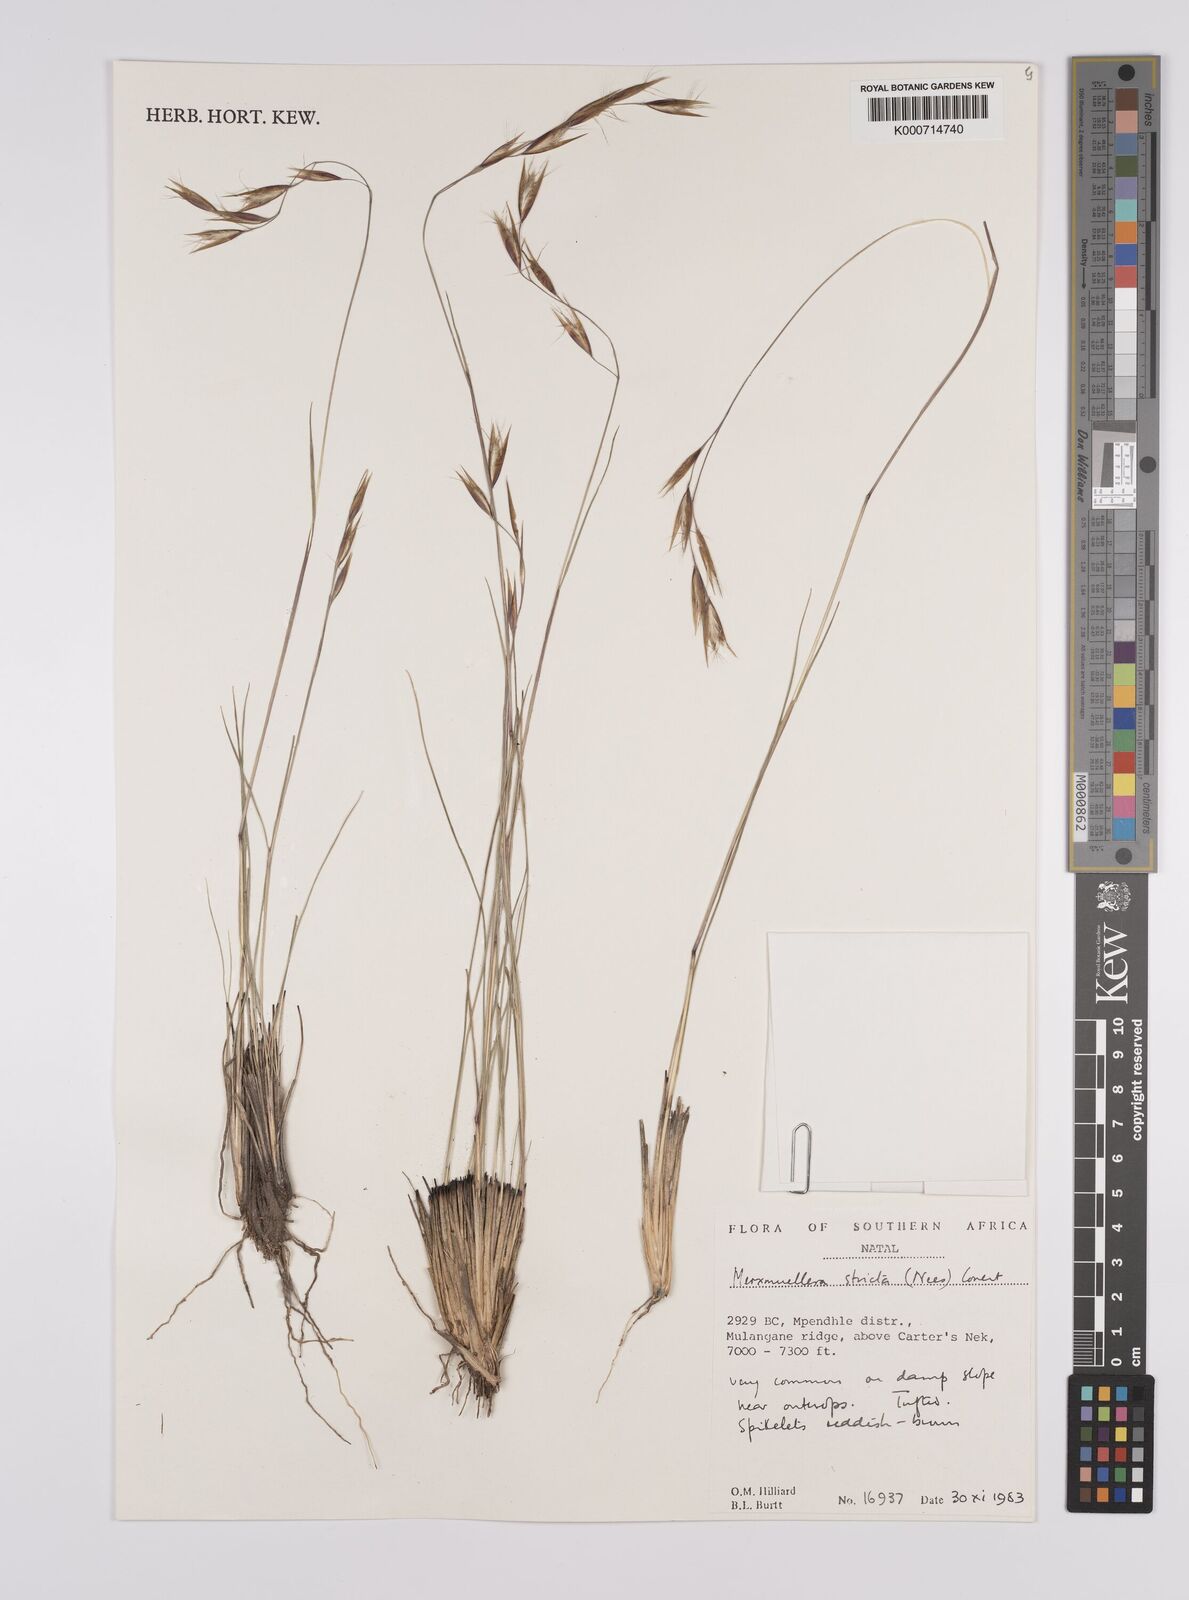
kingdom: Plantae
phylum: Tracheophyta
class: Liliopsida
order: Poales
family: Poaceae
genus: Rytidosperma
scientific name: Rytidosperma
